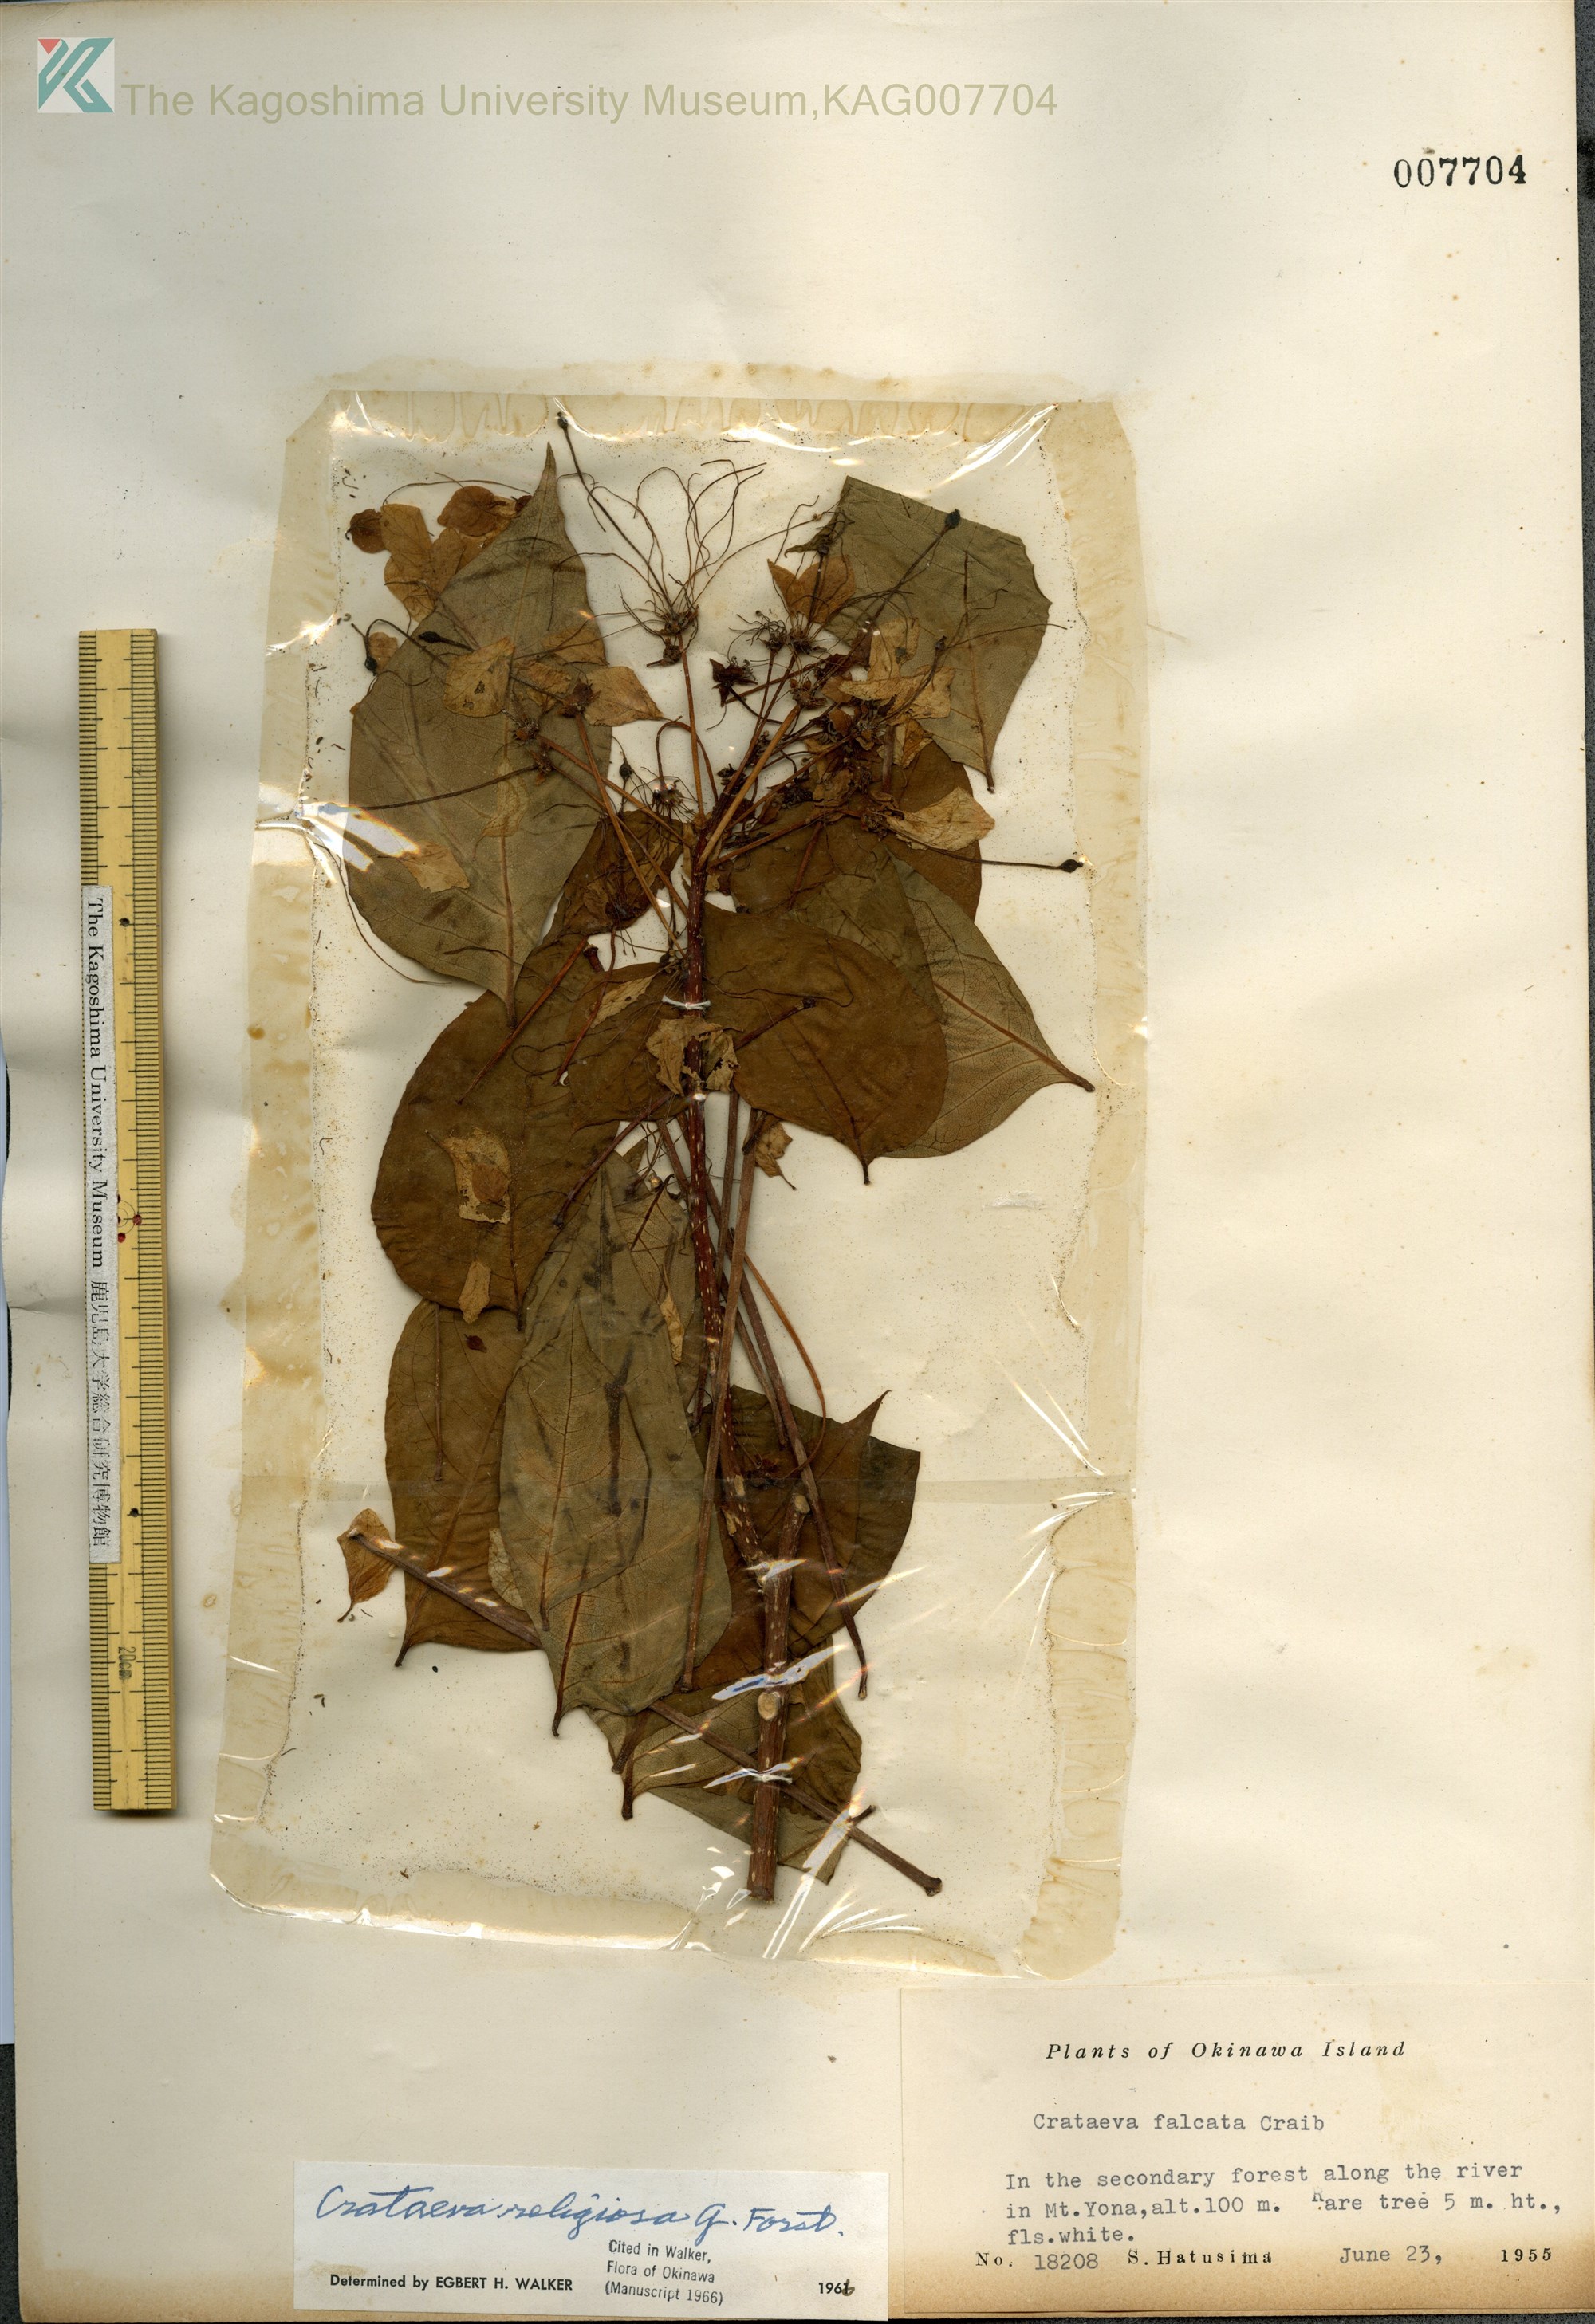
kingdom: Plantae
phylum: Tracheophyta
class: Magnoliopsida
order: Brassicales
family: Capparaceae
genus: Crateva
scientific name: Crateva formosensis
